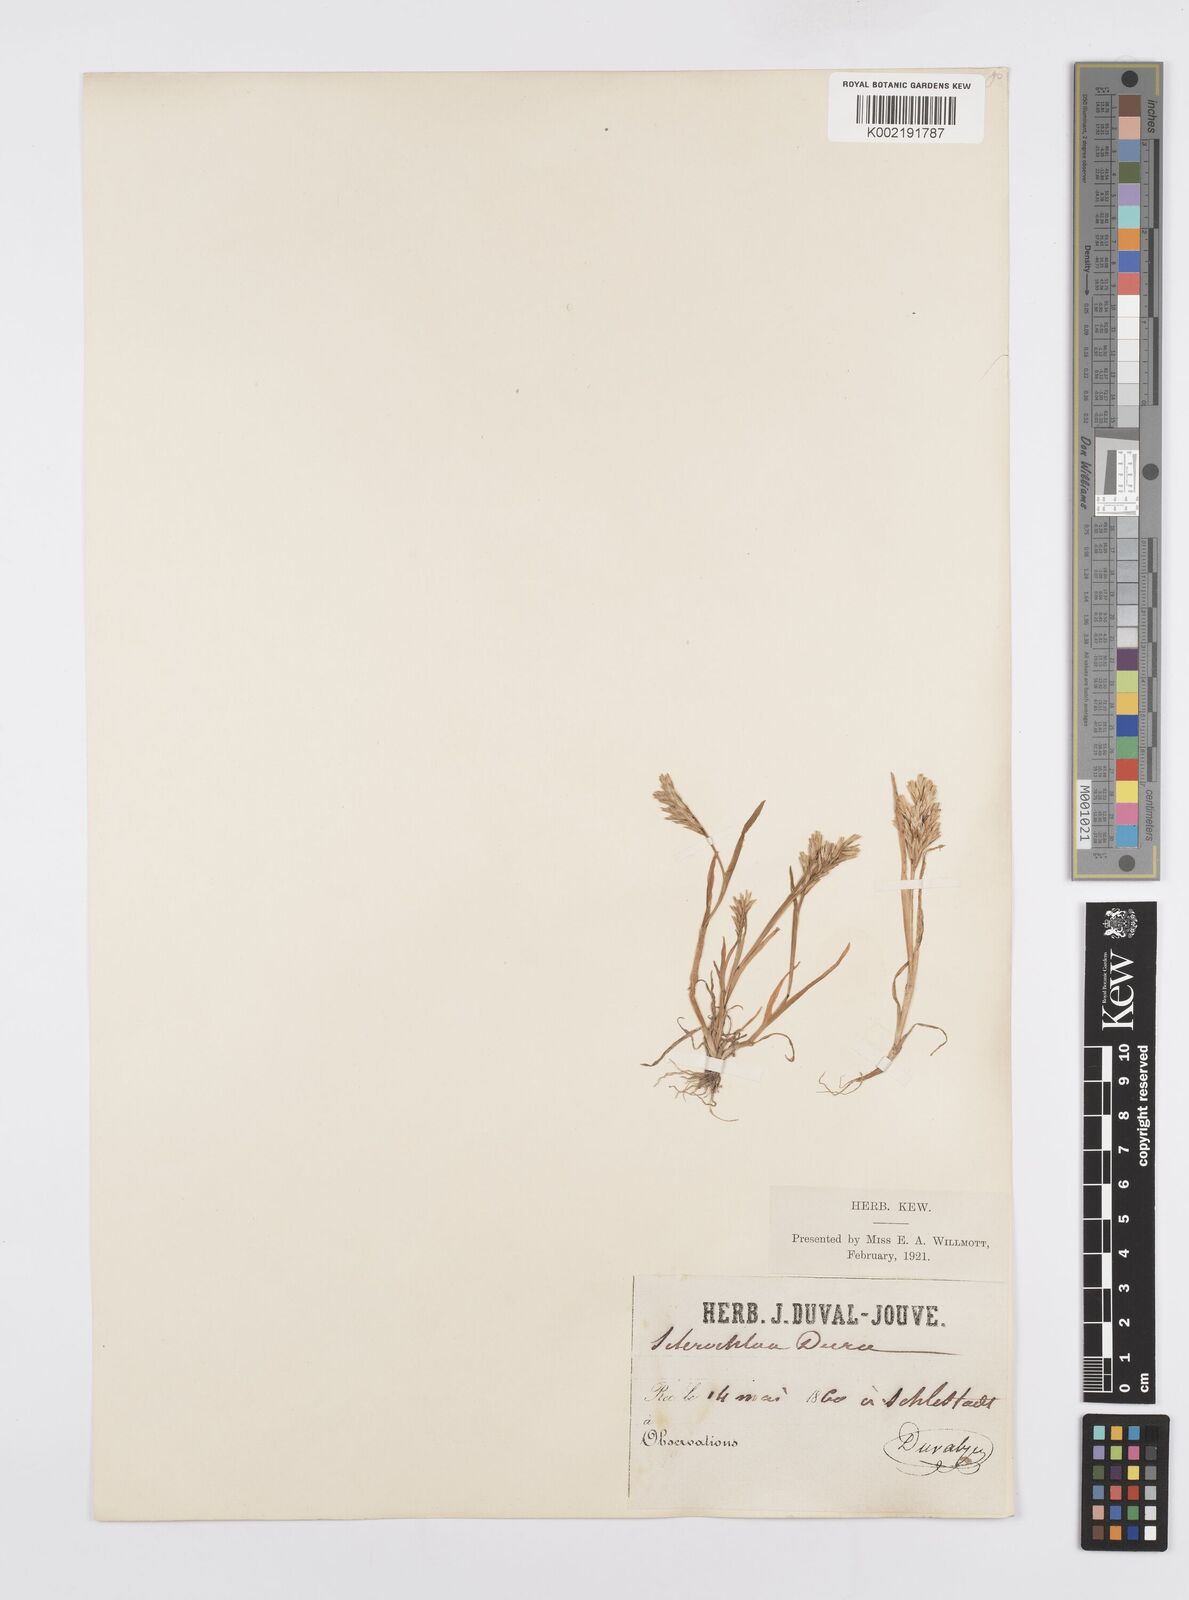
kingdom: Plantae
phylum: Tracheophyta
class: Liliopsida
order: Poales
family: Poaceae
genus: Sclerochloa
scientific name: Sclerochloa dura
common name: Common hardgrass
